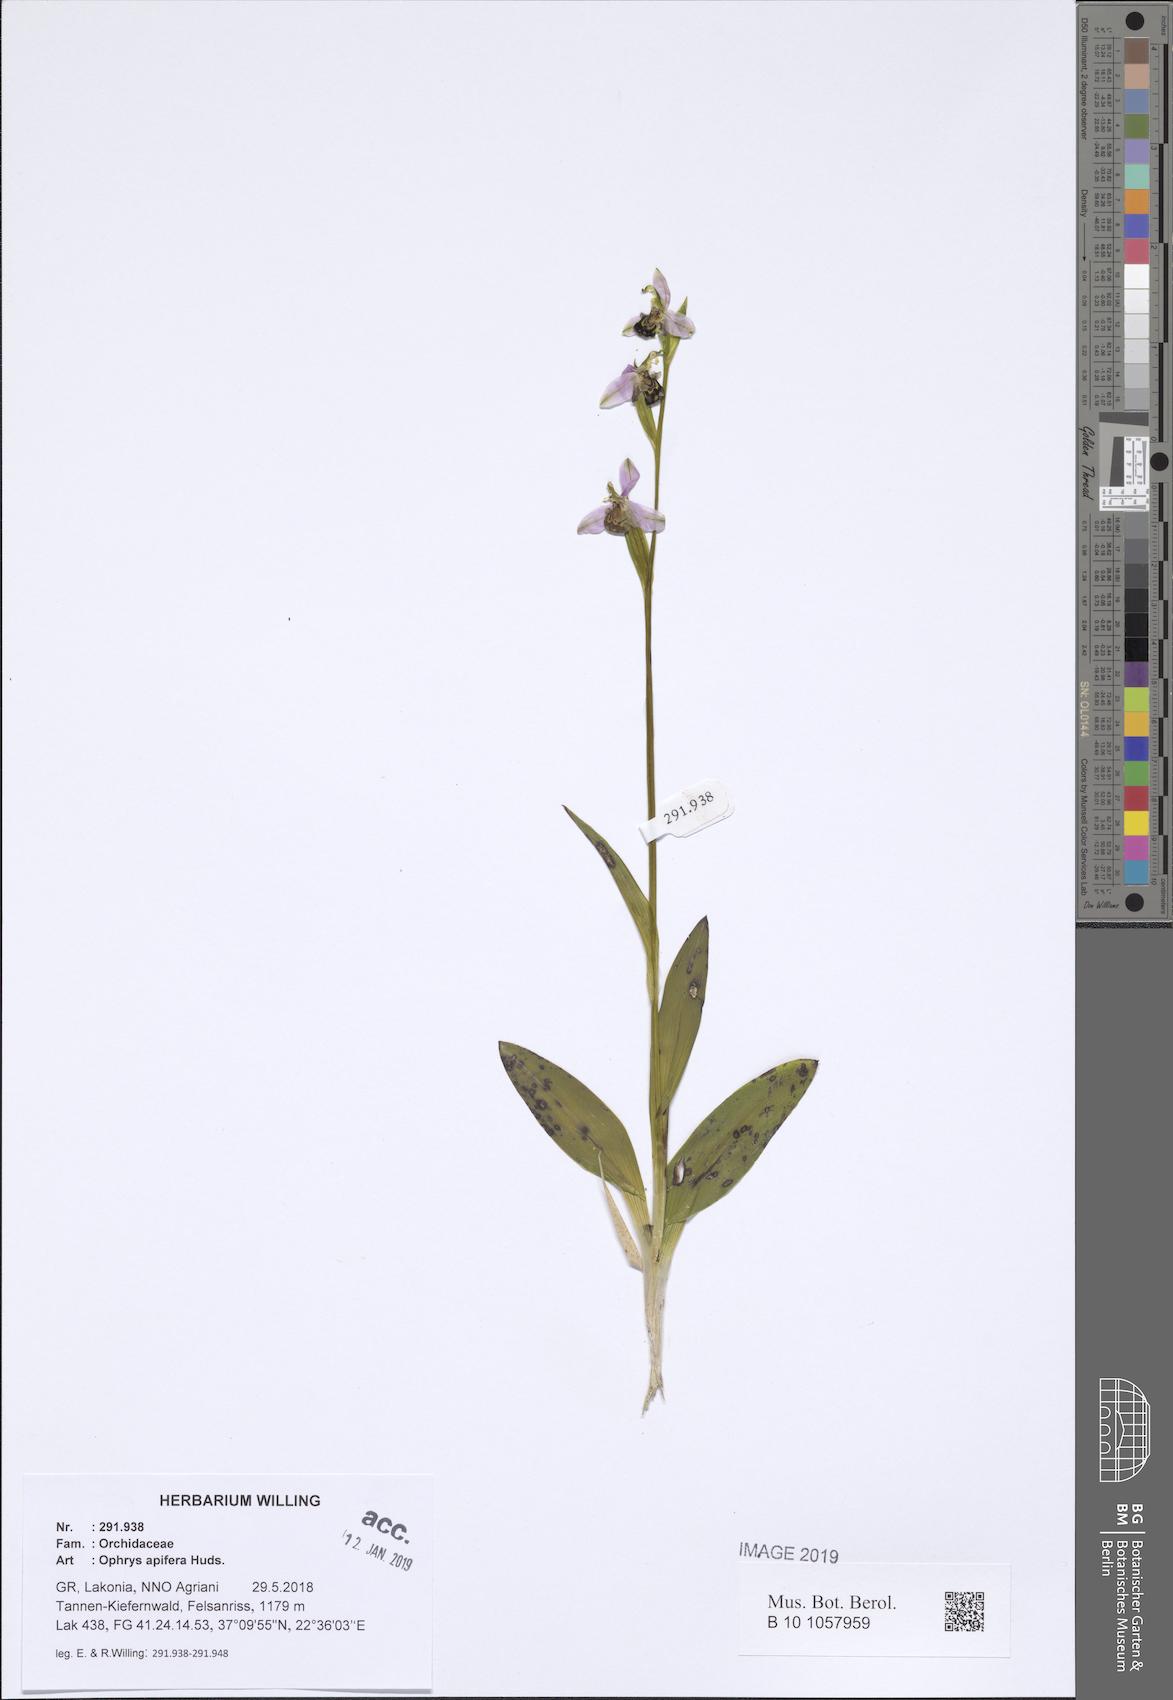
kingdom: Plantae
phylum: Tracheophyta
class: Liliopsida
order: Asparagales
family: Orchidaceae
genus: Ophrys
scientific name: Ophrys apifera
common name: Bee orchid
